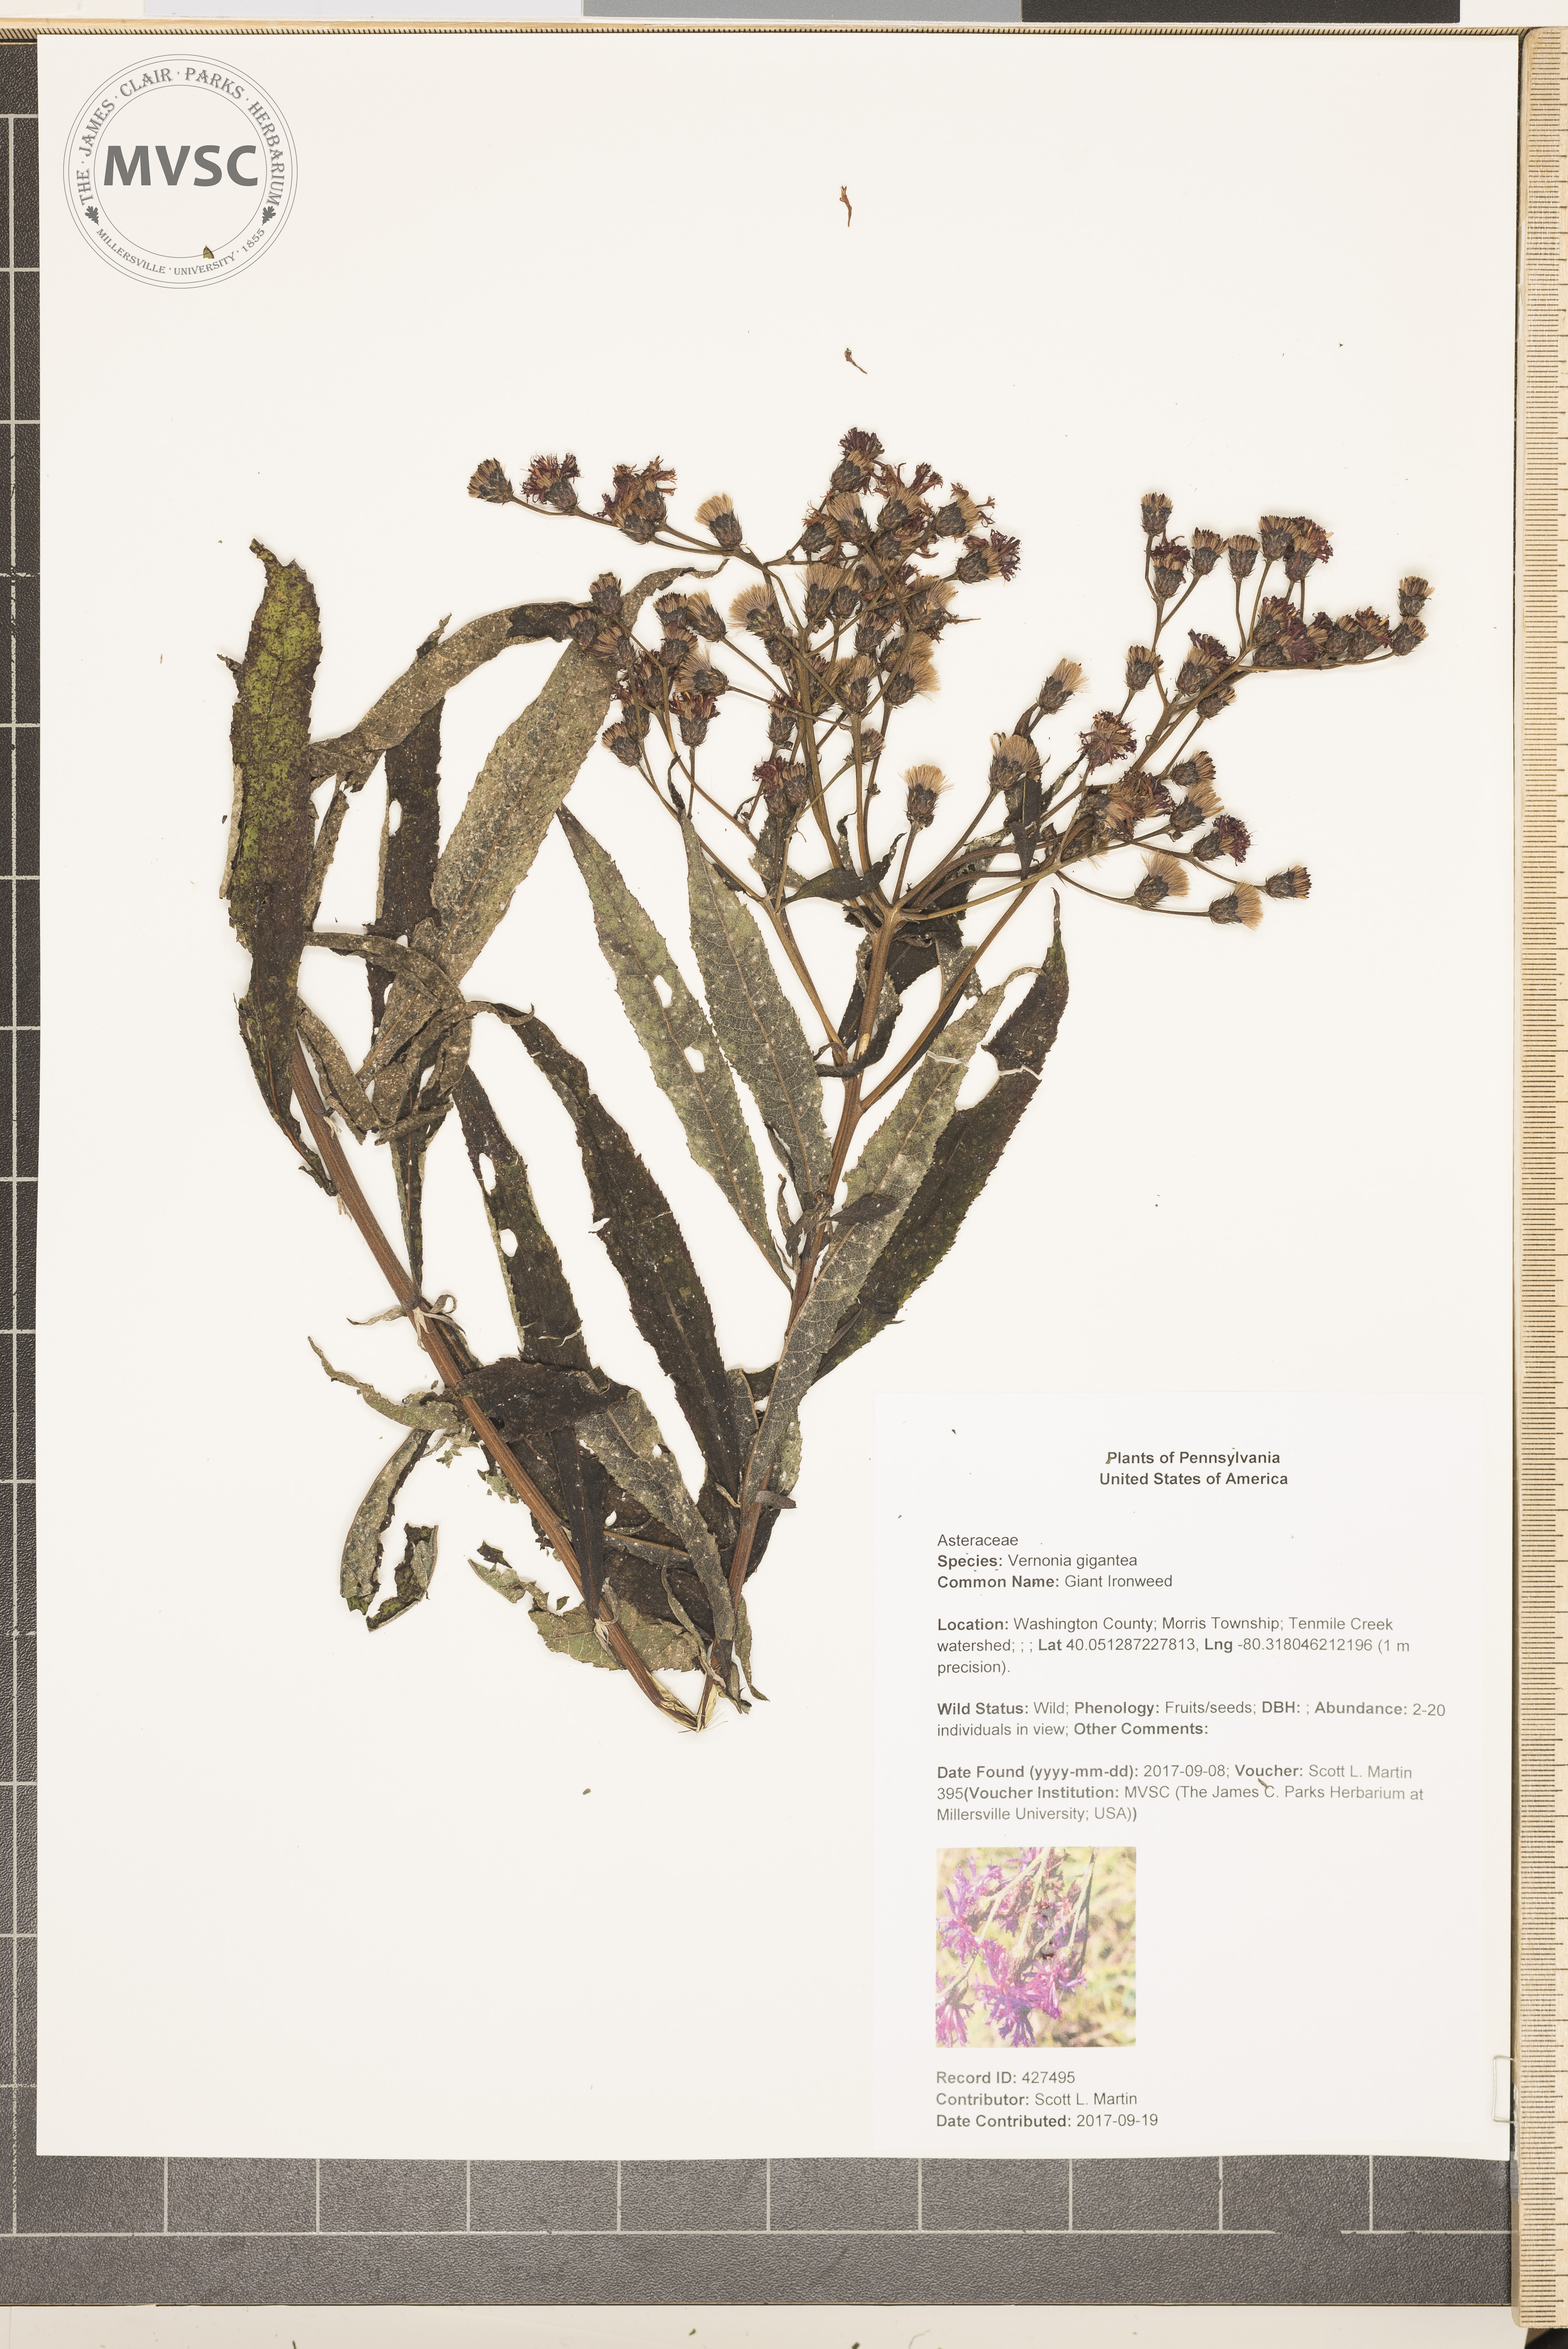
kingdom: Plantae
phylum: Tracheophyta
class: Magnoliopsida
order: Asterales
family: Asteraceae
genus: Vernonia
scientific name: Vernonia gigantea
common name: Giant Ironweed
